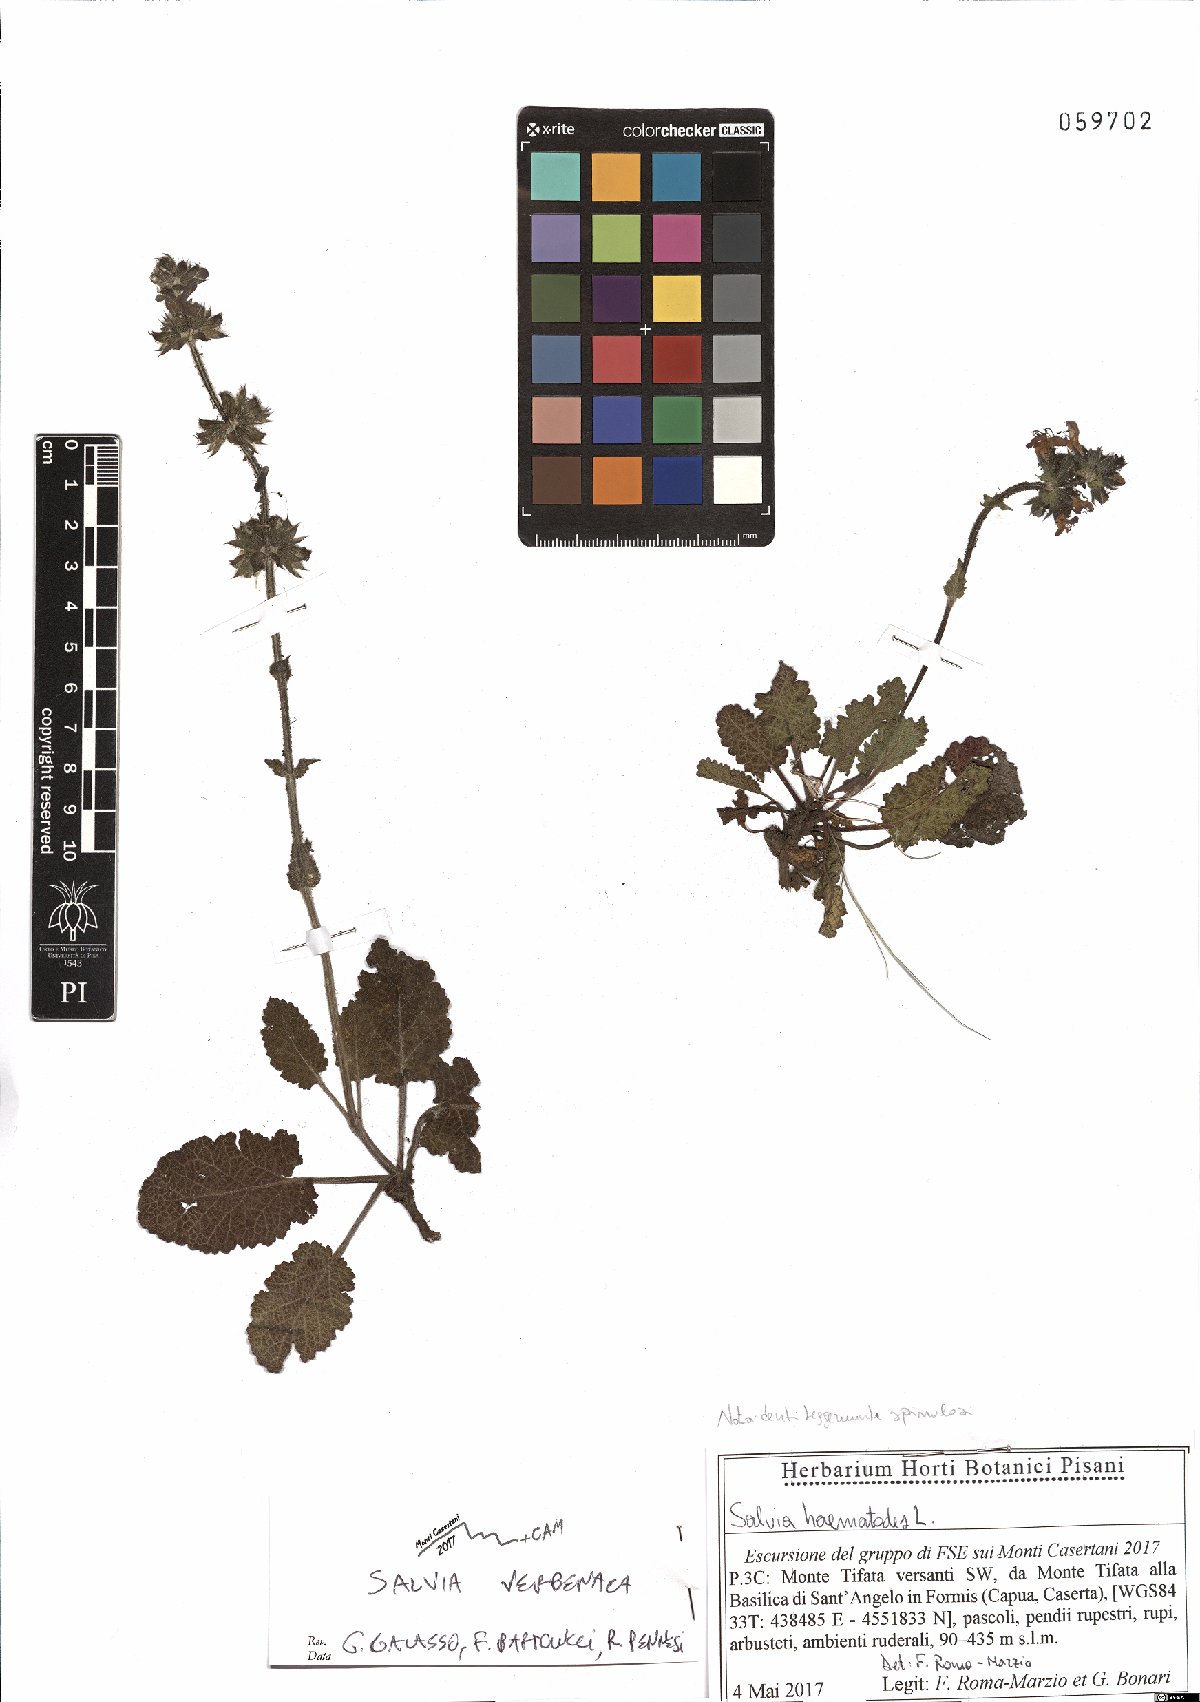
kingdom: Plantae
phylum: Tracheophyta
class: Magnoliopsida
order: Lamiales
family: Lamiaceae
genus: Salvia
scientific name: Salvia verbenaca
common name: Wild clary
